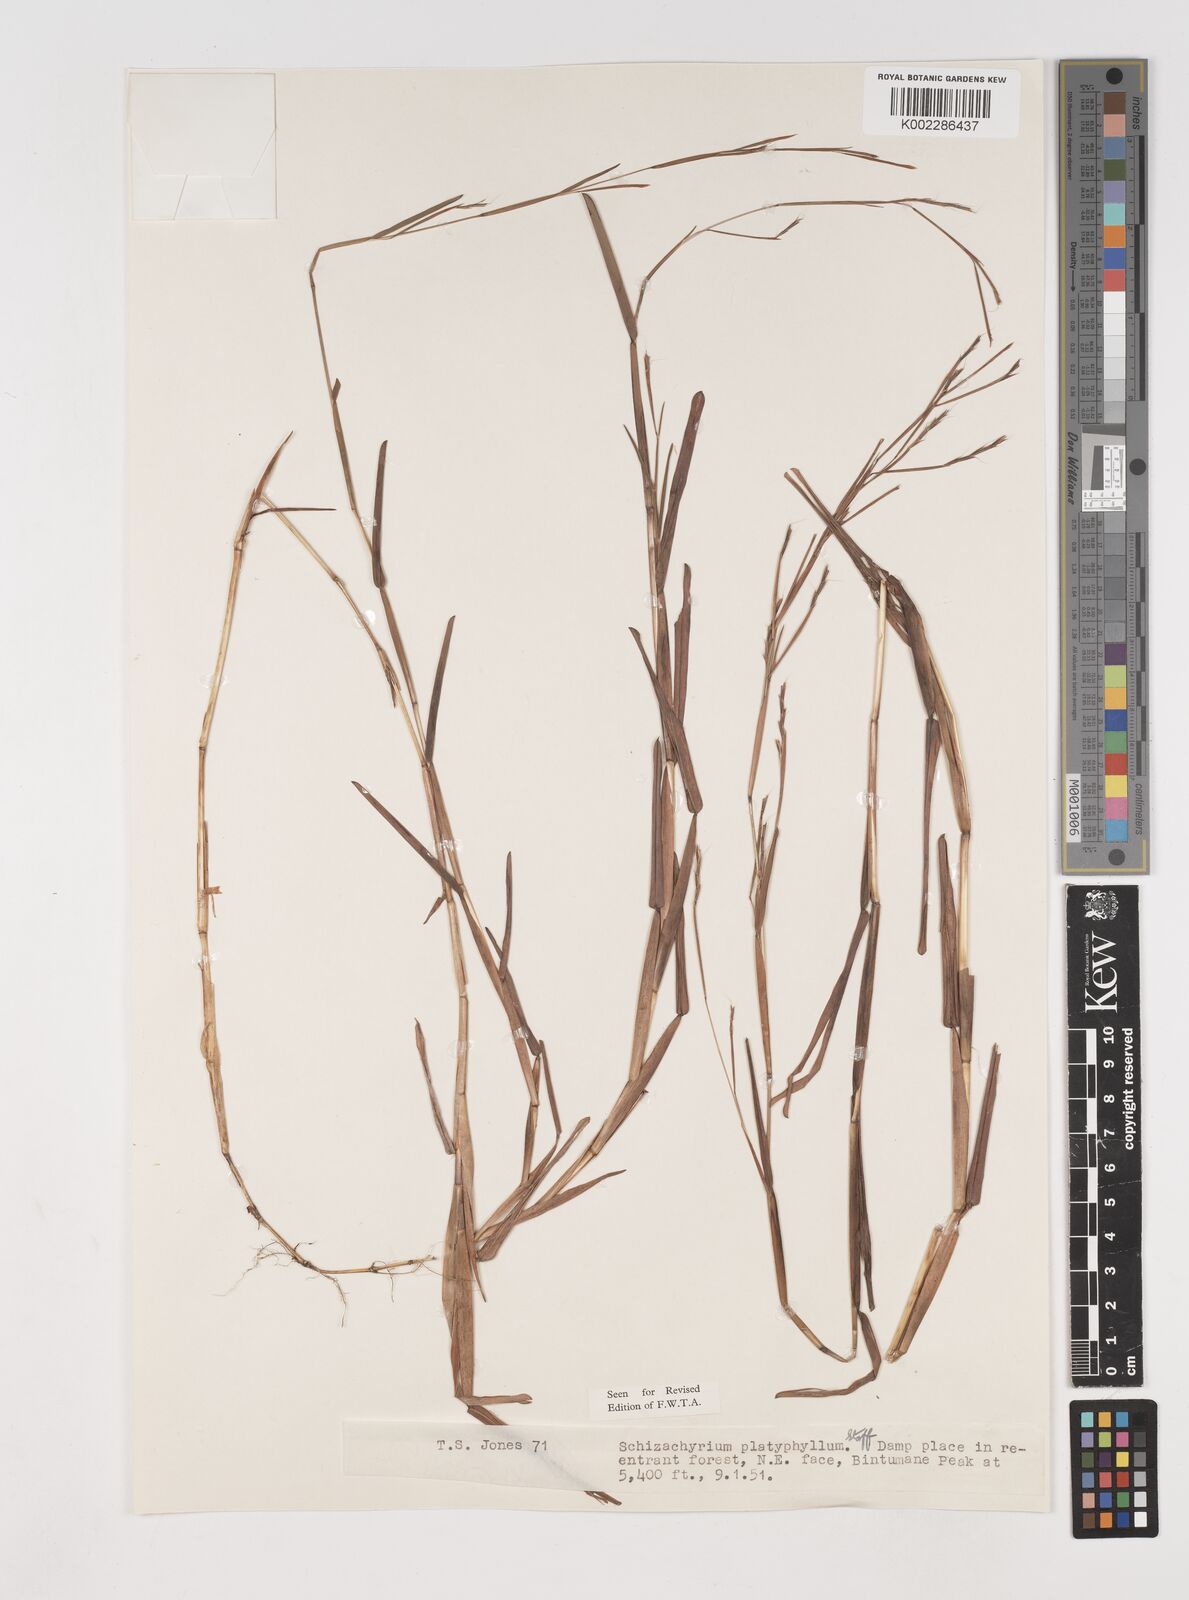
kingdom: Plantae
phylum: Tracheophyta
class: Liliopsida
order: Poales
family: Poaceae
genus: Schizachyrium
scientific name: Schizachyrium platyphyllum
